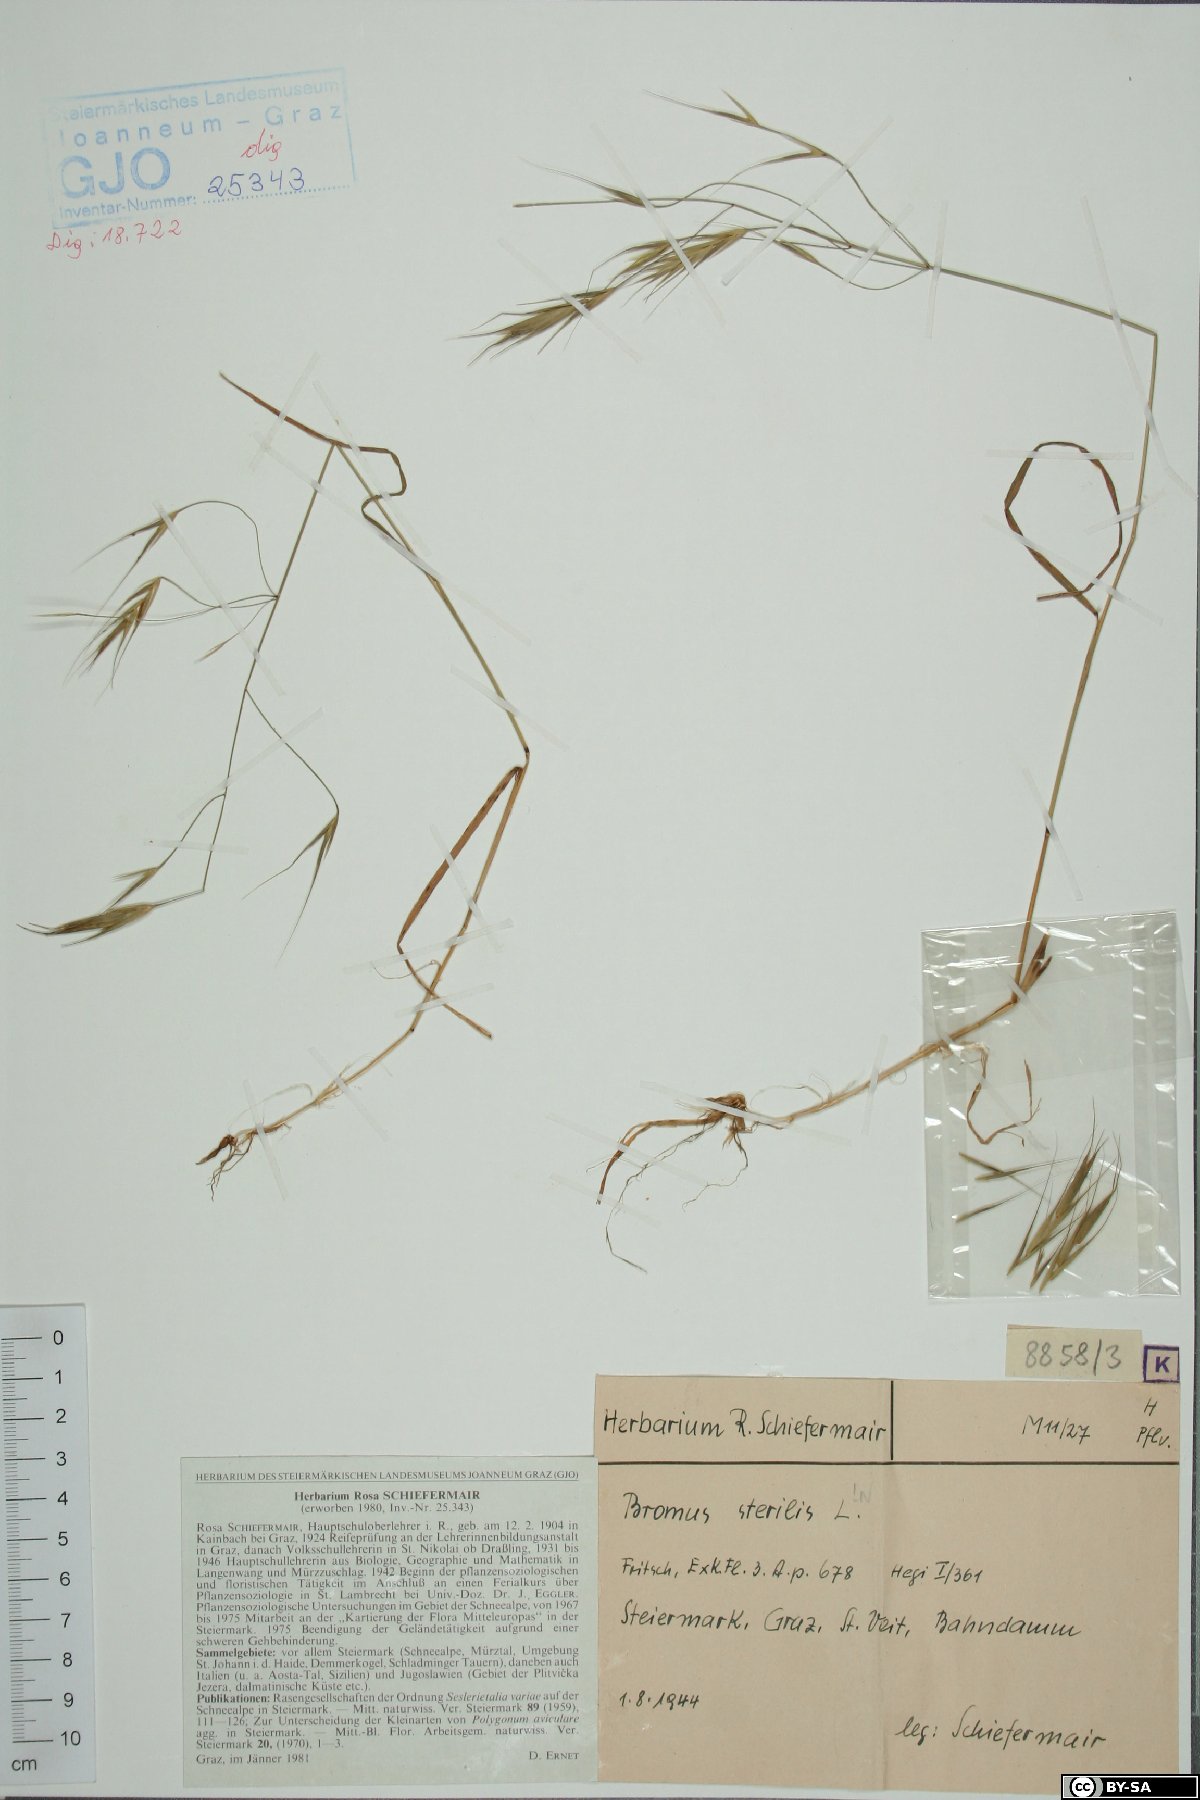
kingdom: Plantae
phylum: Tracheophyta
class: Liliopsida
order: Poales
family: Poaceae
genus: Bromus
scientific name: Bromus sterilis
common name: Poverty brome
